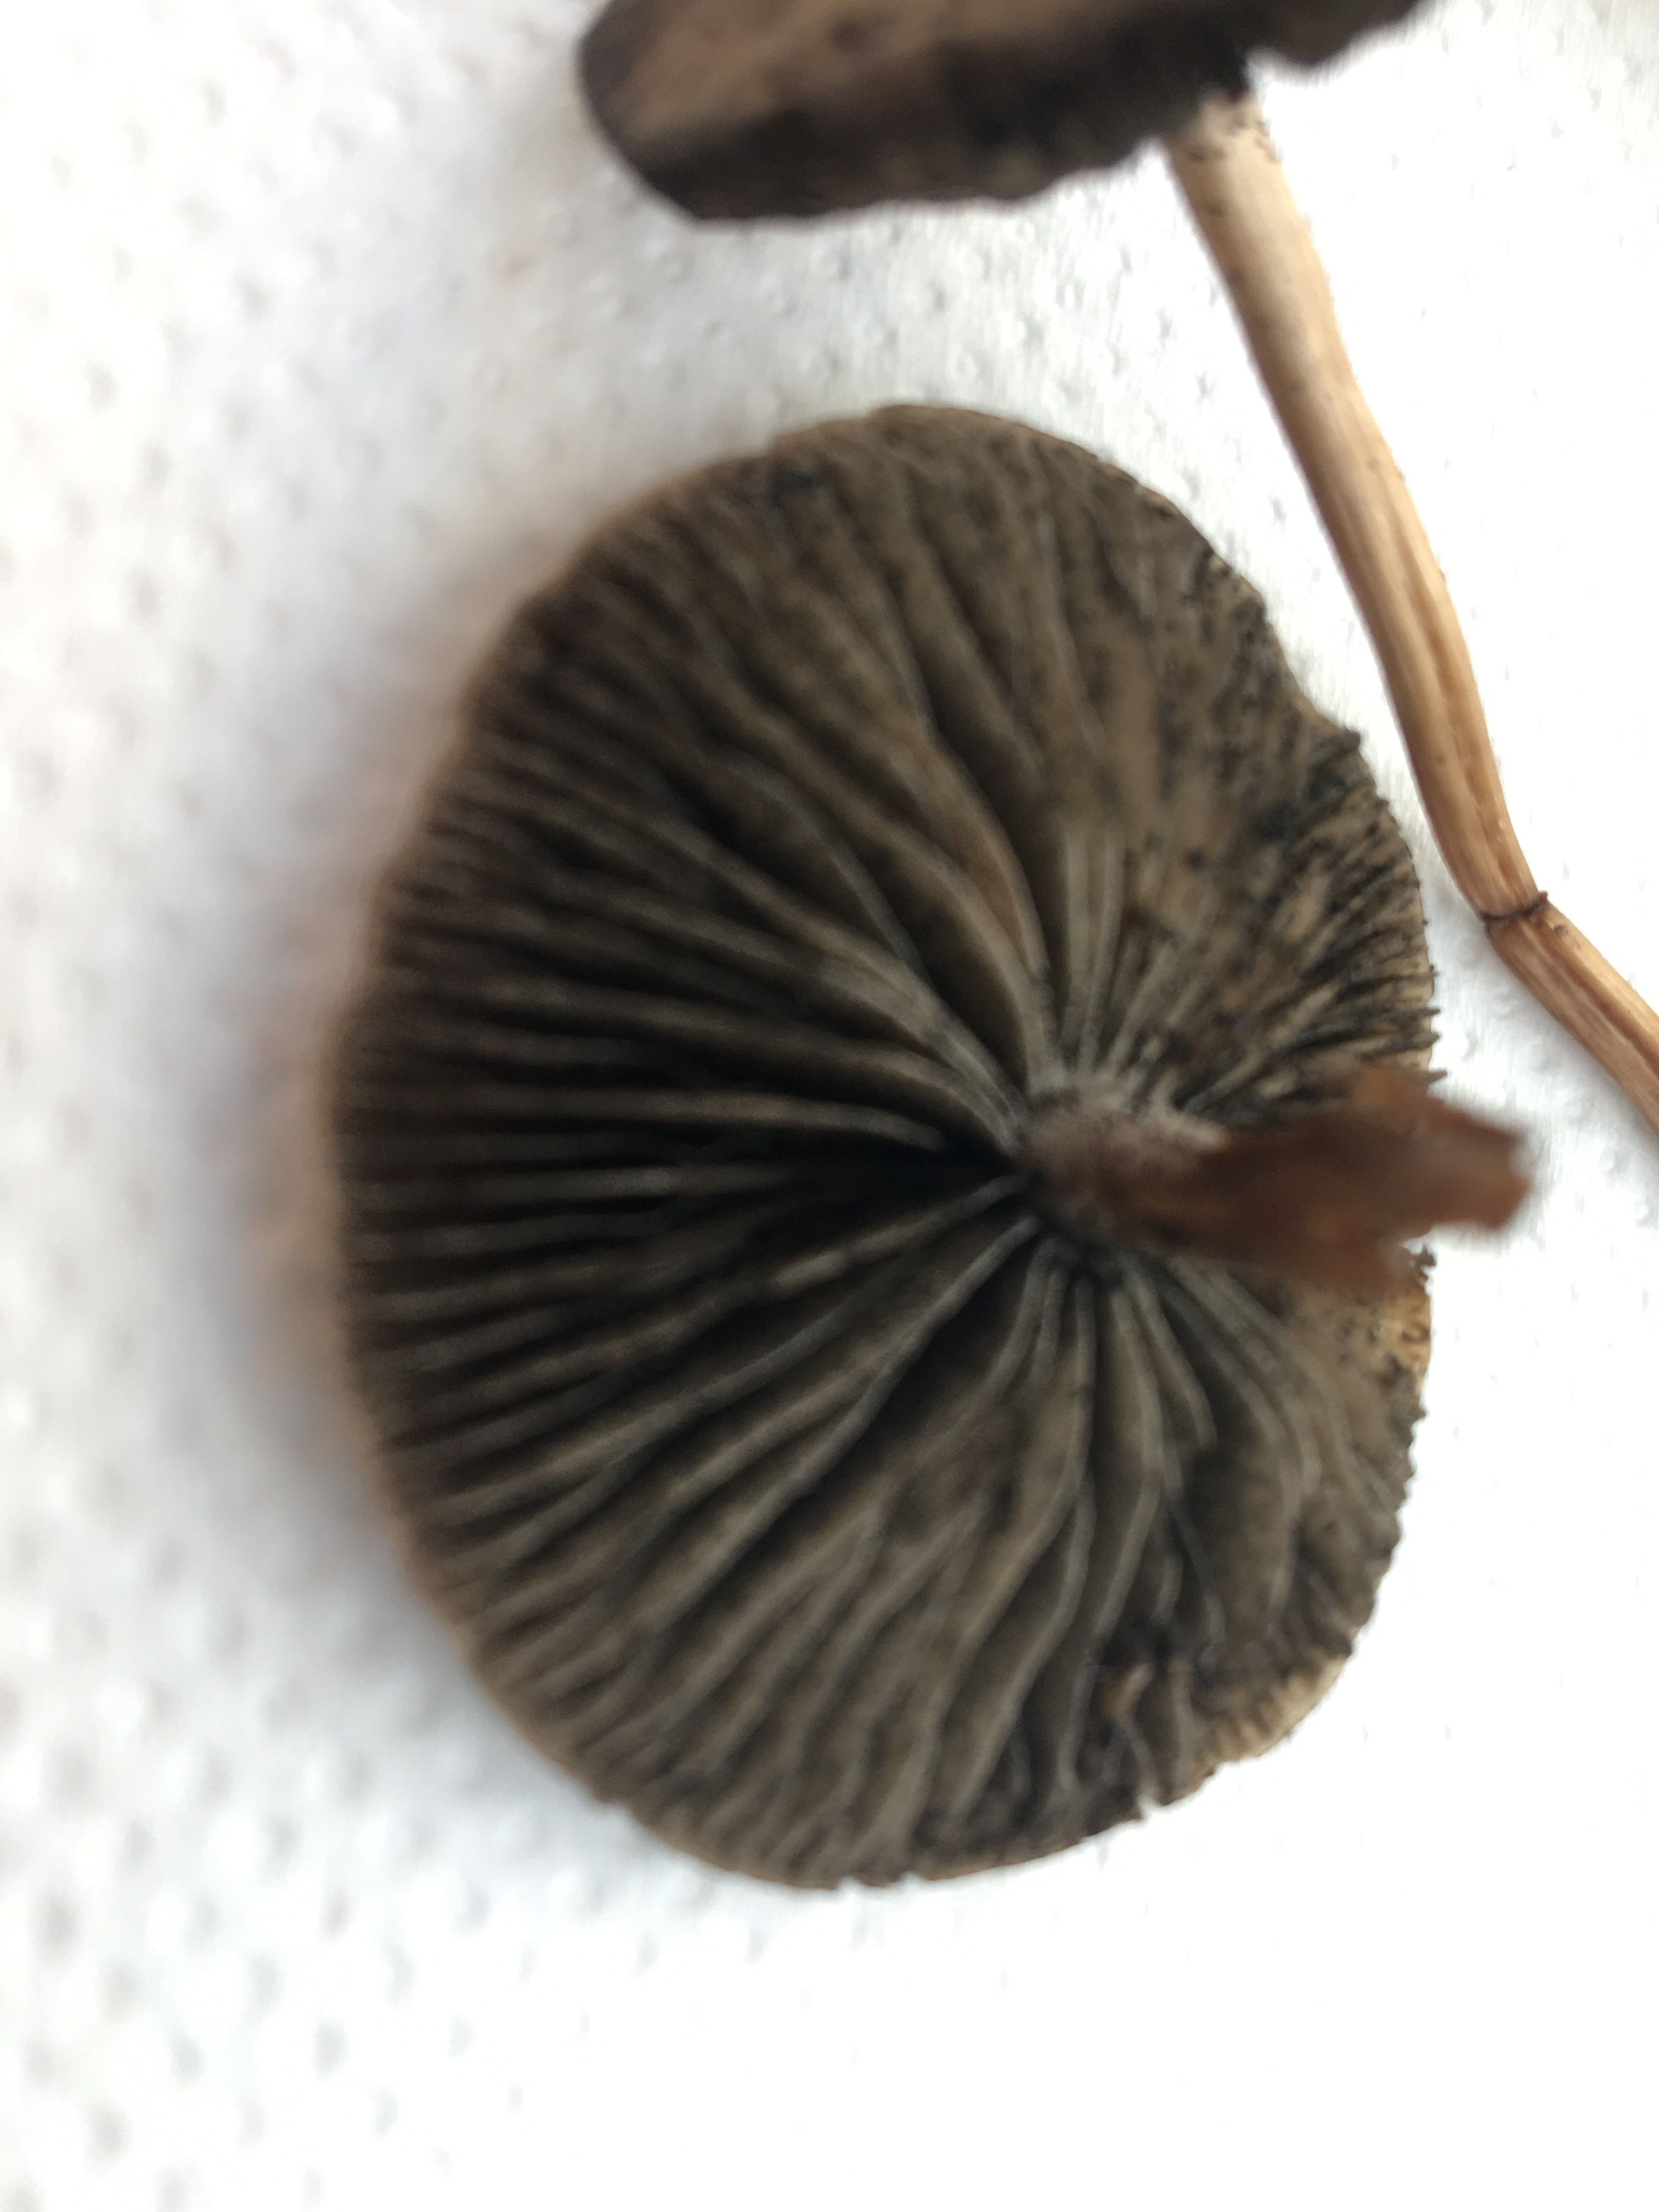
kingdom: Fungi
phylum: Basidiomycota
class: Agaricomycetes
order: Agaricales
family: Bolbitiaceae
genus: Panaeolus
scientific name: Panaeolus
